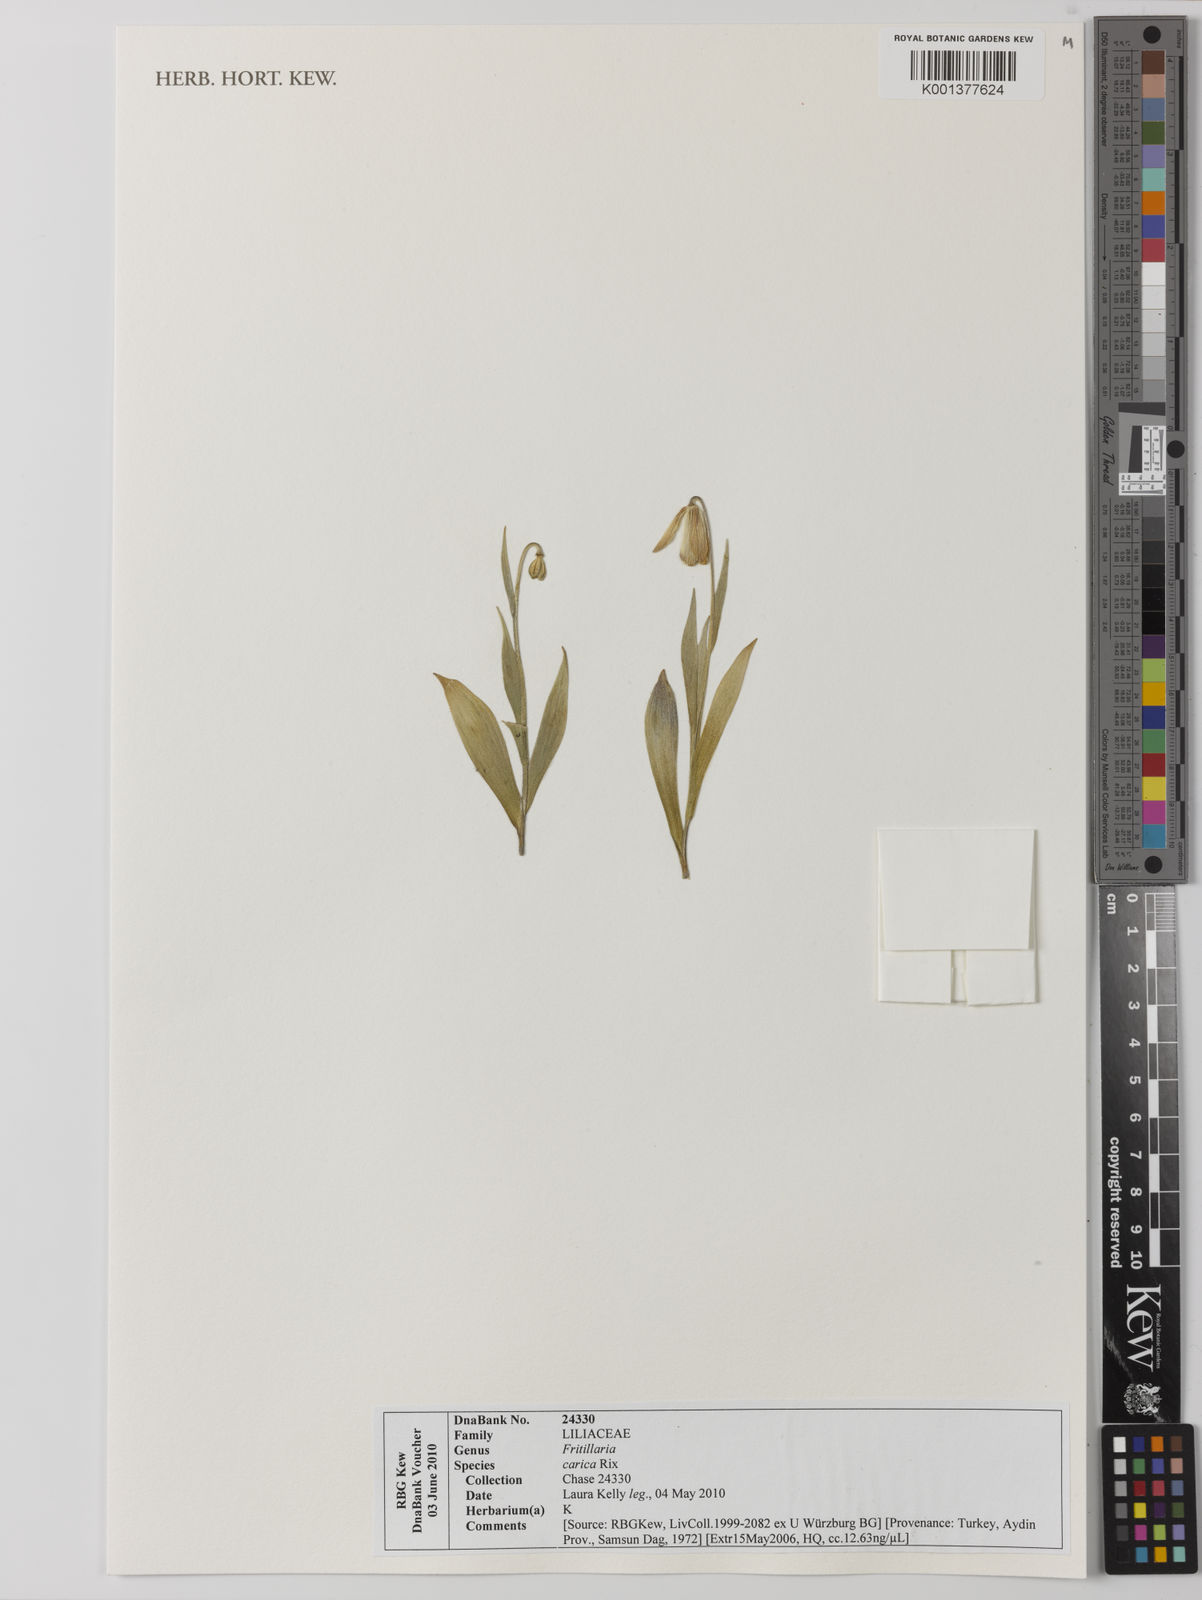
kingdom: Plantae
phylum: Tracheophyta
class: Liliopsida
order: Liliales
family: Liliaceae
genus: Fritillaria
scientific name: Fritillaria carica
